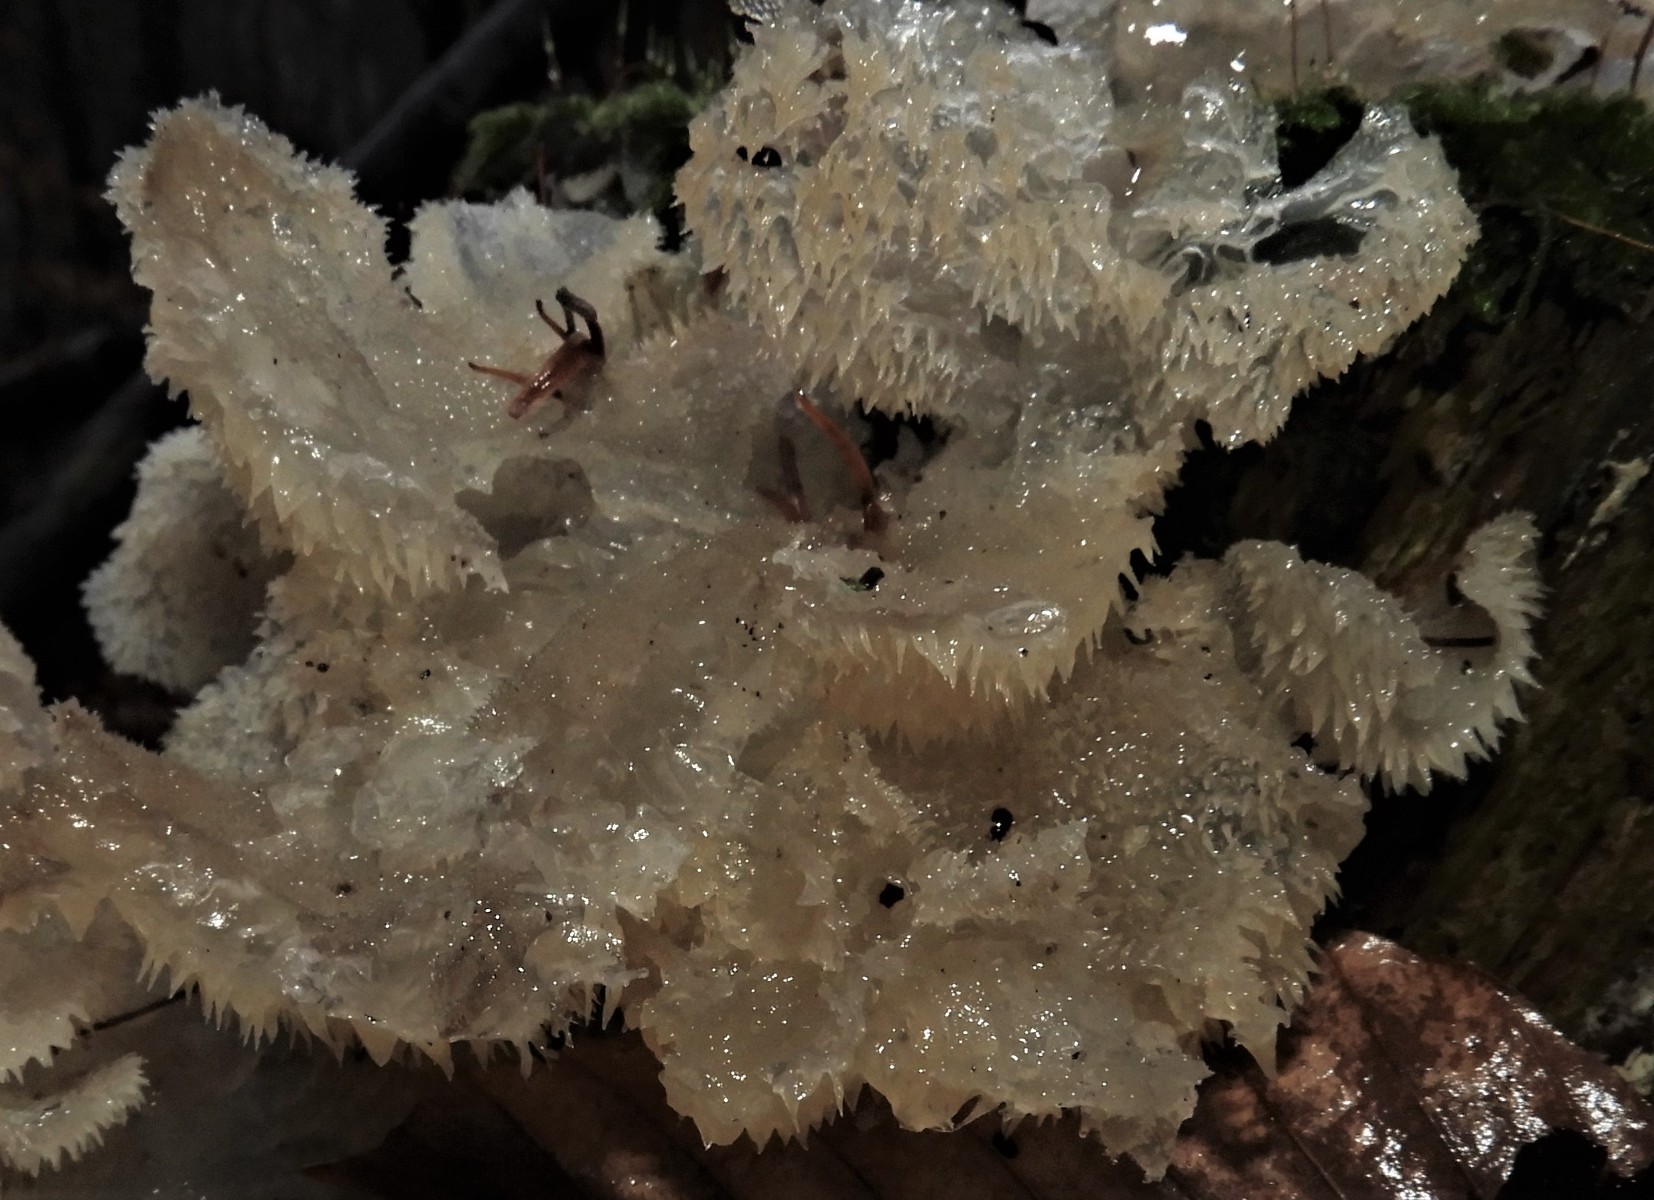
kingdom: Fungi
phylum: Basidiomycota
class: Agaricomycetes
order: Auriculariales
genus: Pseudohydnum
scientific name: Pseudohydnum gelatinosum
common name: bævretand
